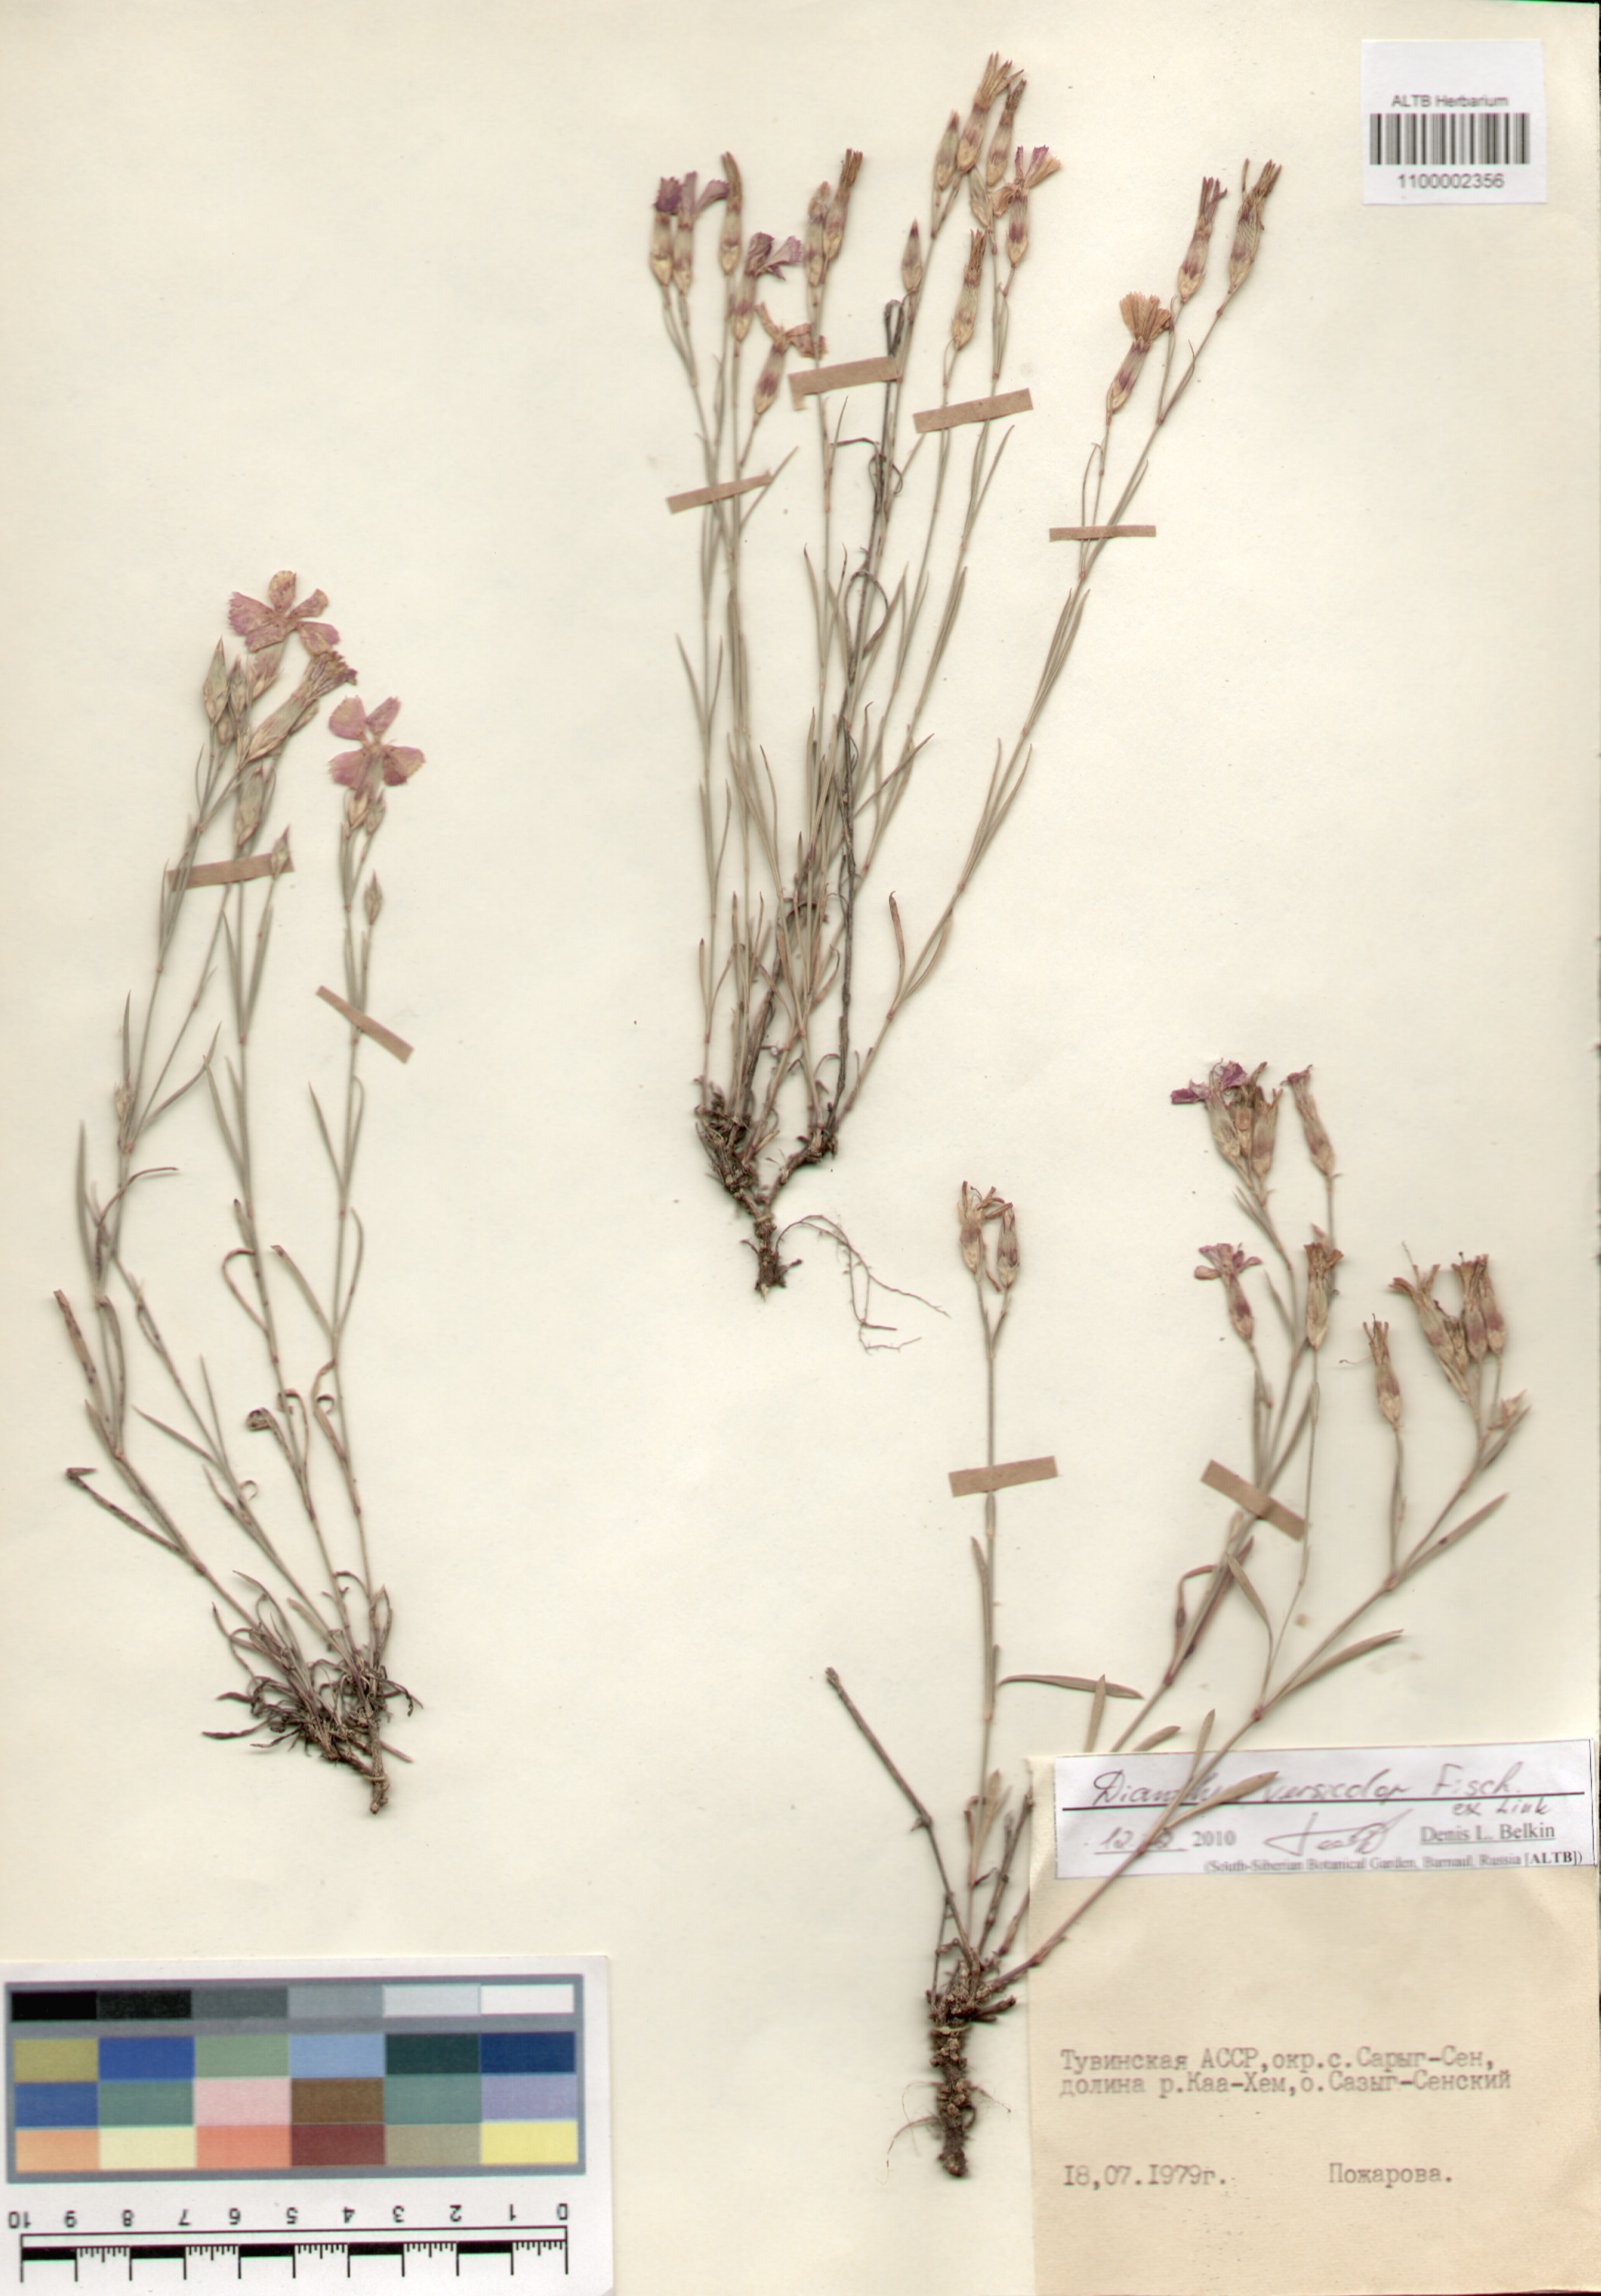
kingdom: Plantae
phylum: Tracheophyta
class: Magnoliopsida
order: Caryophyllales
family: Caryophyllaceae
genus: Dianthus
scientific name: Dianthus chinensis
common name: Rainbow pink
